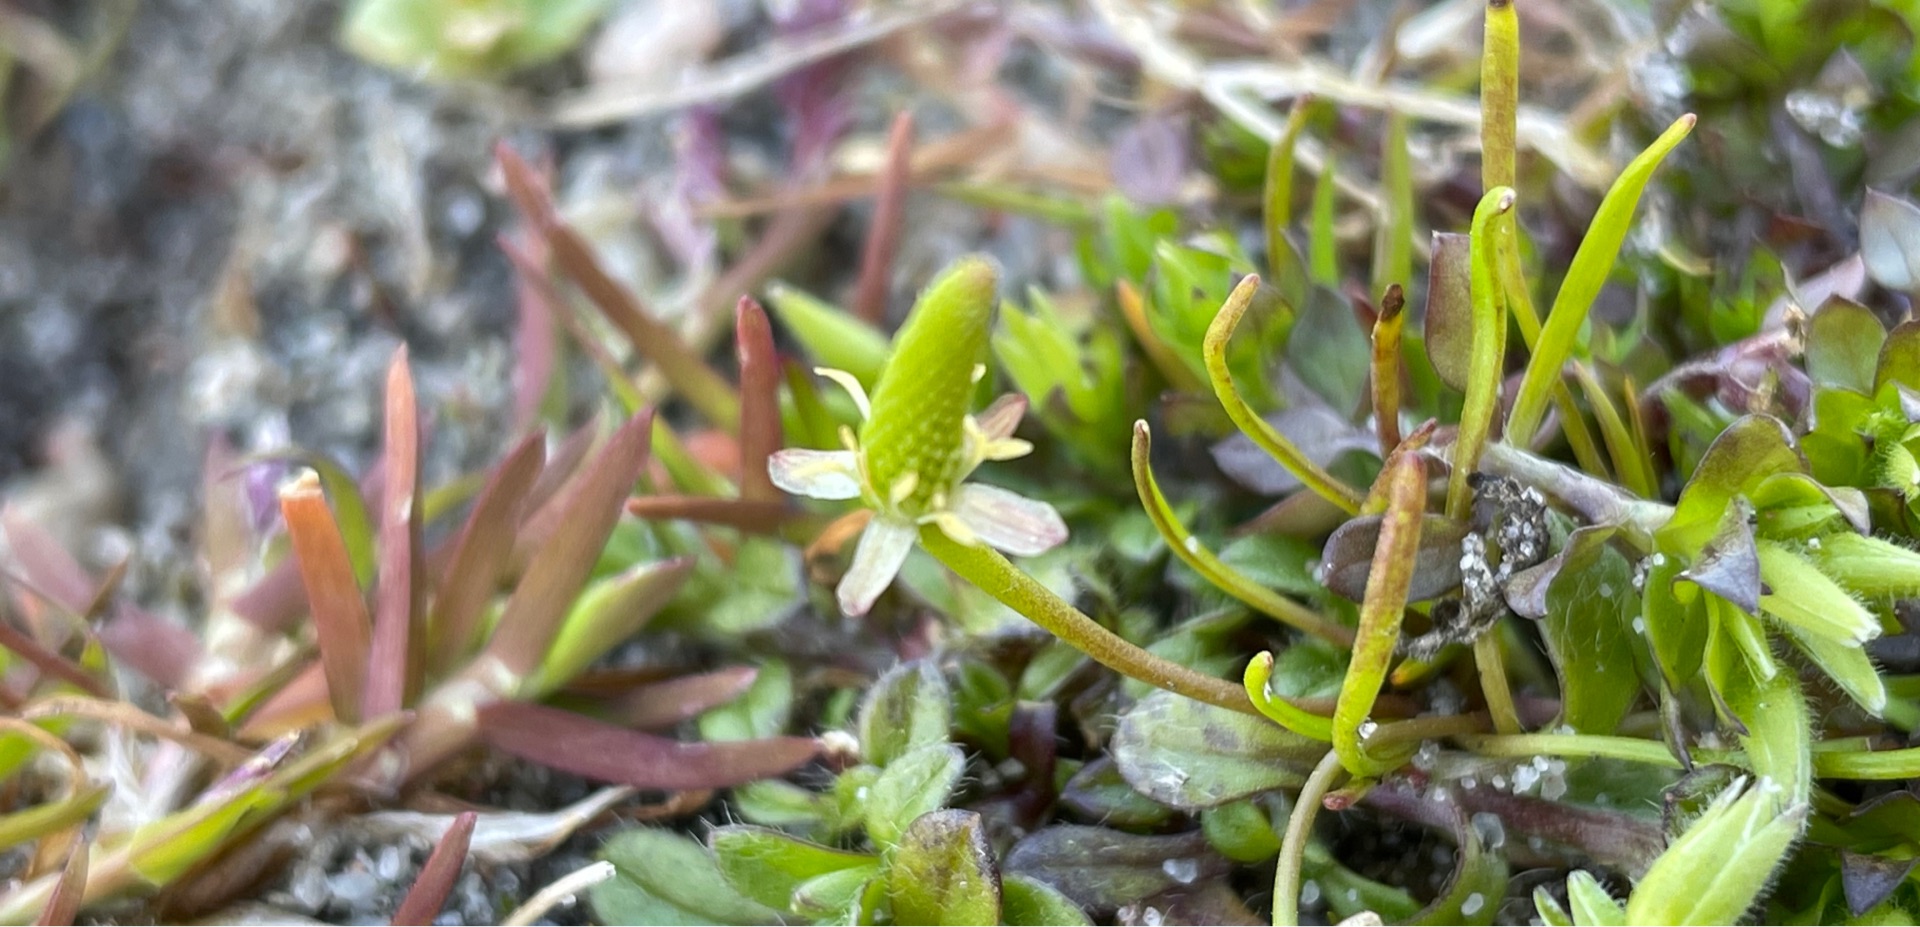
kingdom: Plantae
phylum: Tracheophyta
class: Magnoliopsida
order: Ranunculales
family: Ranunculaceae
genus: Myosurus
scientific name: Myosurus minimus
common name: Musehale
